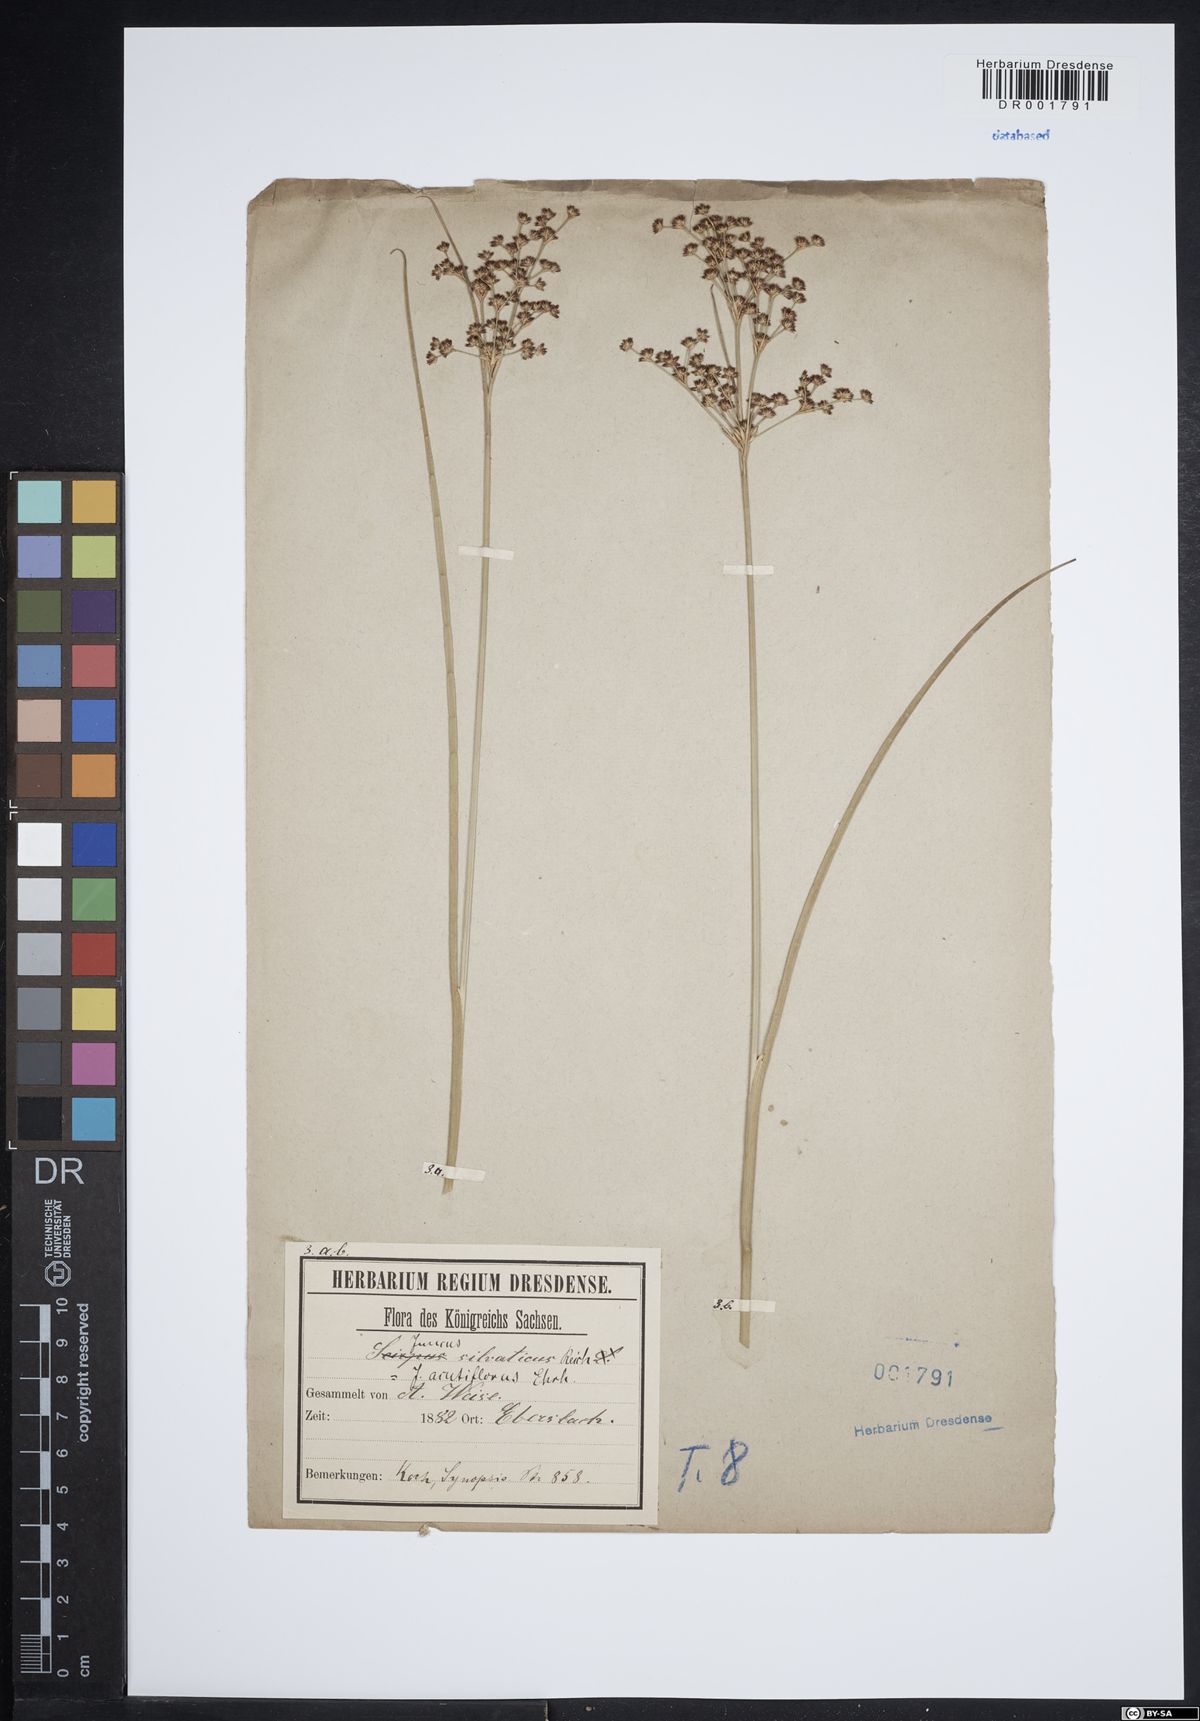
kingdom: Plantae
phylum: Tracheophyta
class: Liliopsida
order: Poales
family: Juncaceae
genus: Juncus
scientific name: Juncus acutiflorus
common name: Sharp-flowered rush
